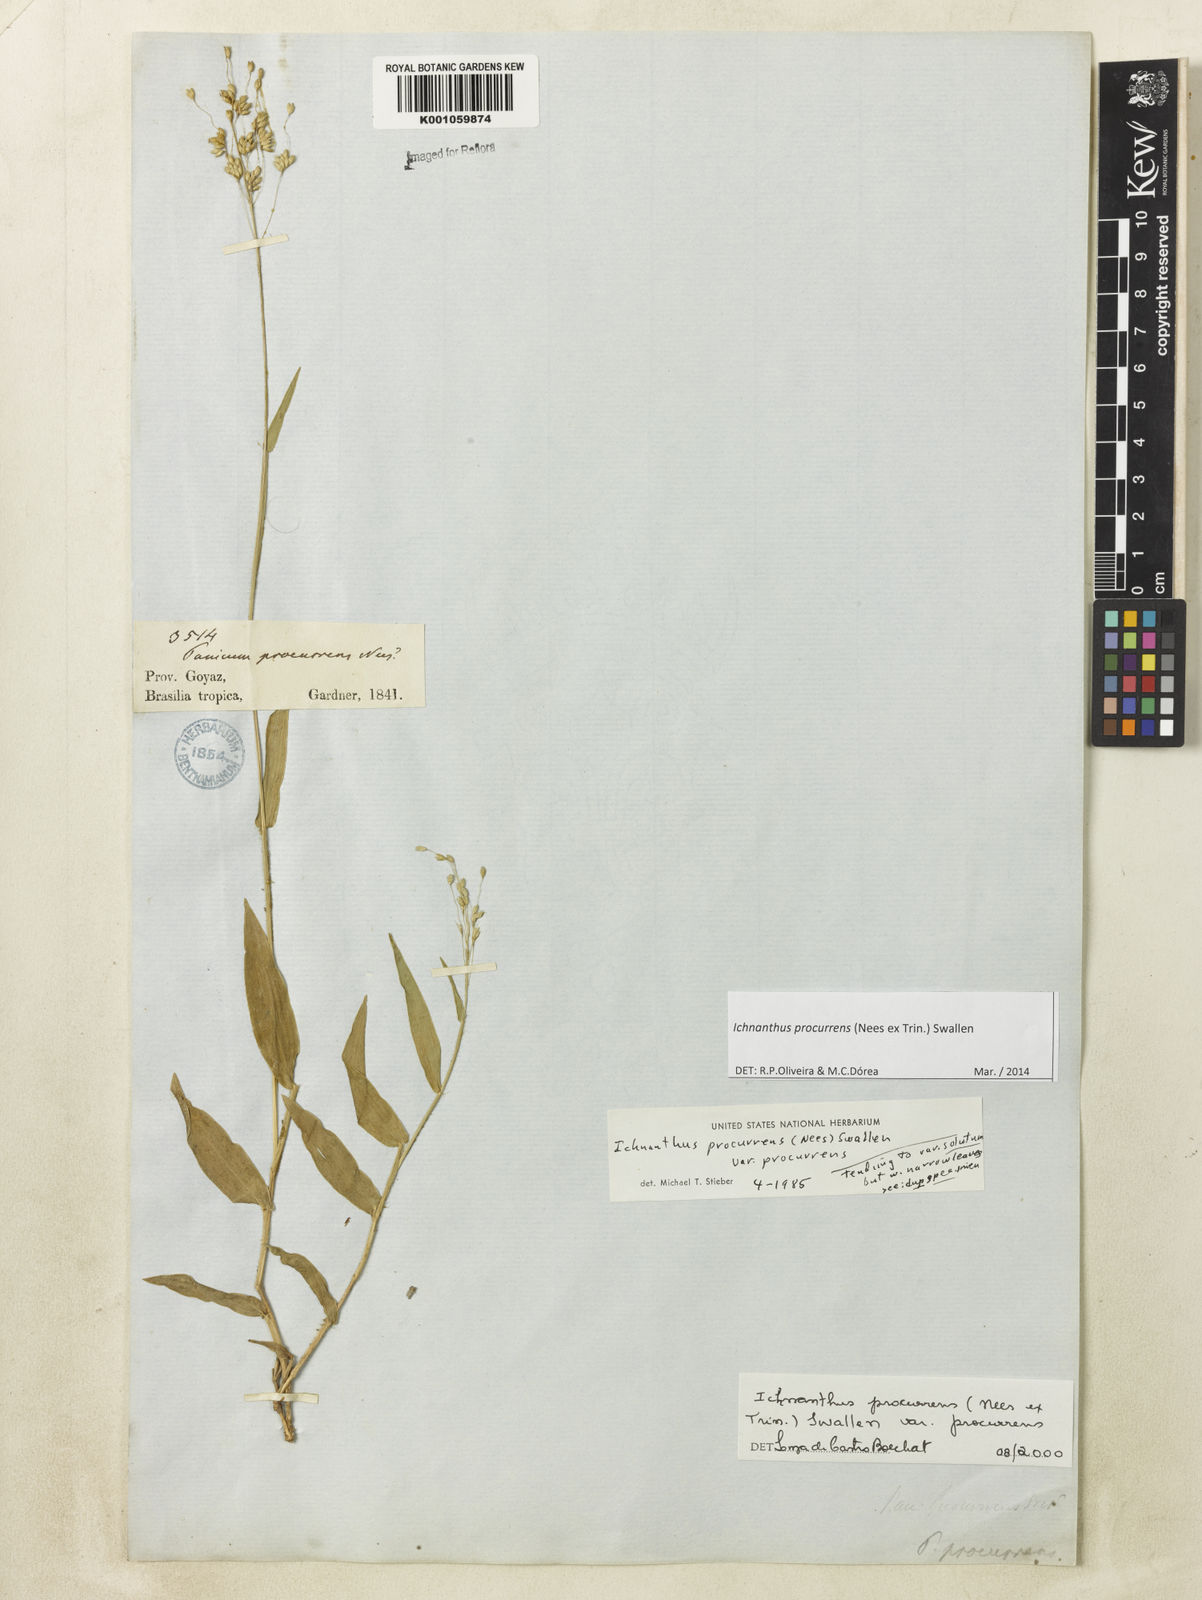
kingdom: Plantae
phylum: Tracheophyta
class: Liliopsida
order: Poales
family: Poaceae
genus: Oedochloa
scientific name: Oedochloa procurrens
